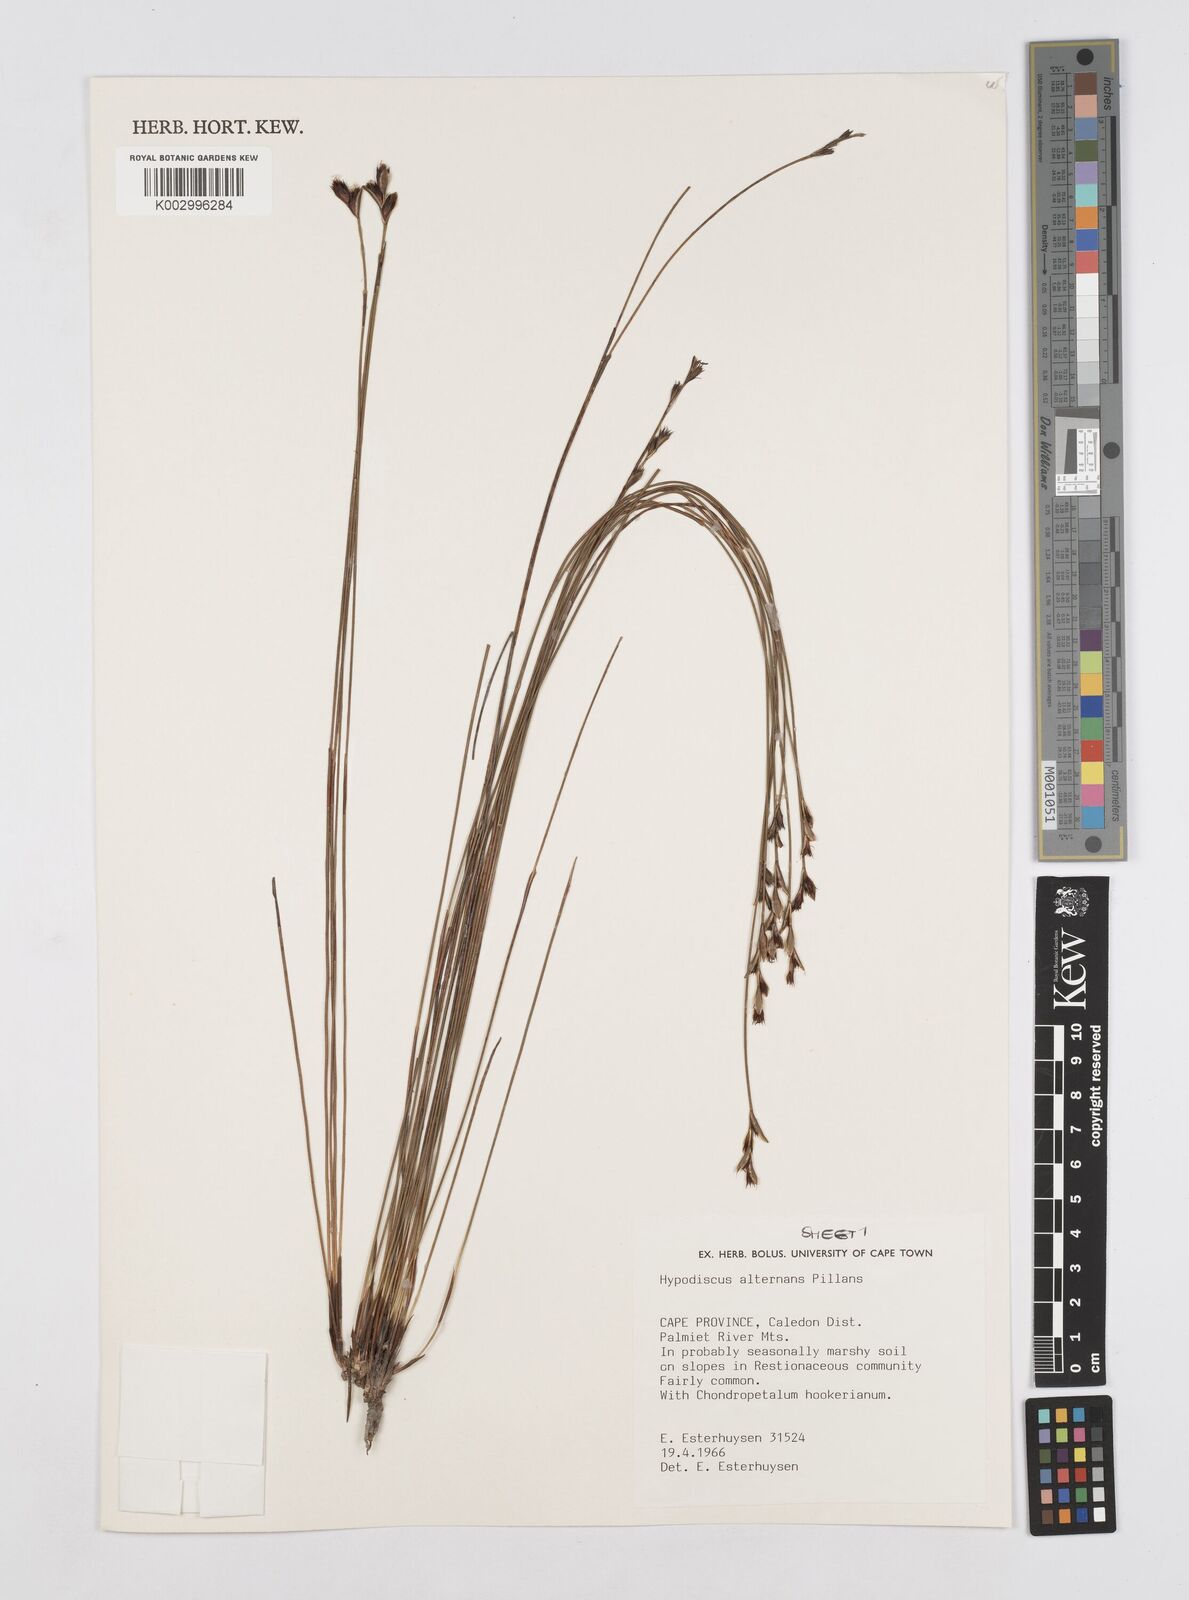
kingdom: Plantae
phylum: Tracheophyta
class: Liliopsida
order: Poales
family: Restionaceae
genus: Hypodiscus
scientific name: Hypodiscus alternans
